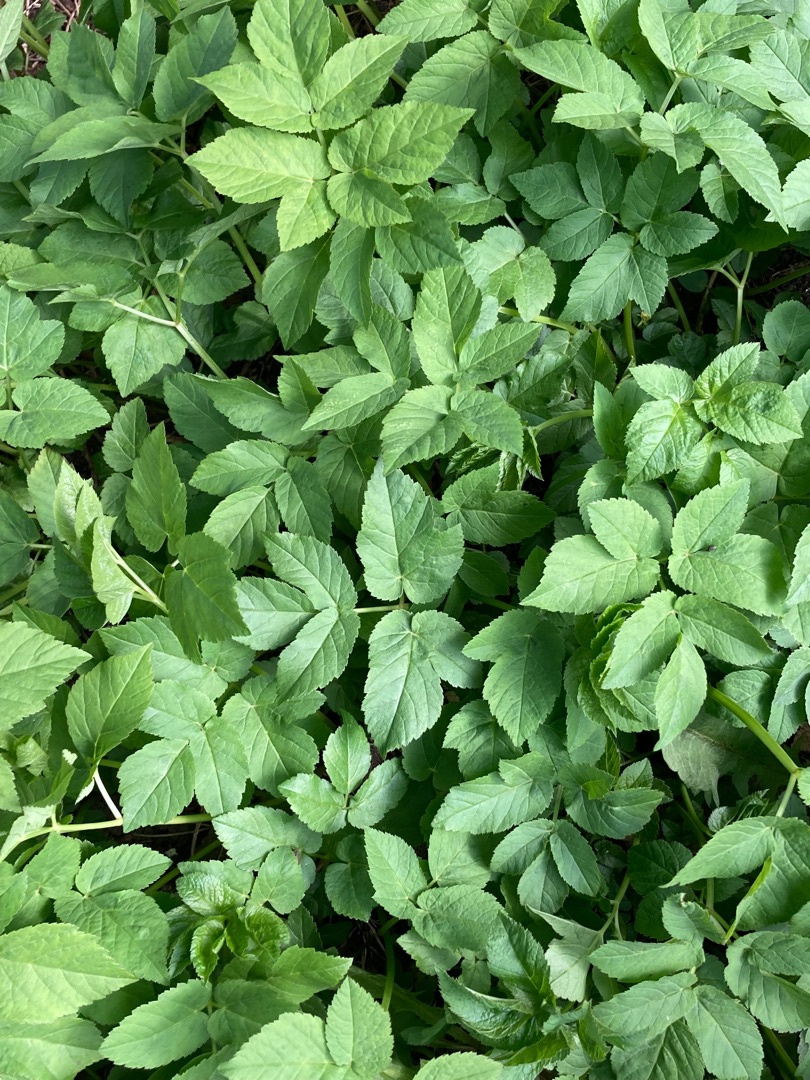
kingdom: Plantae
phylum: Tracheophyta
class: Magnoliopsida
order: Apiales
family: Apiaceae
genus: Aegopodium
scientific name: Aegopodium podagraria
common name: Skvalderkål
